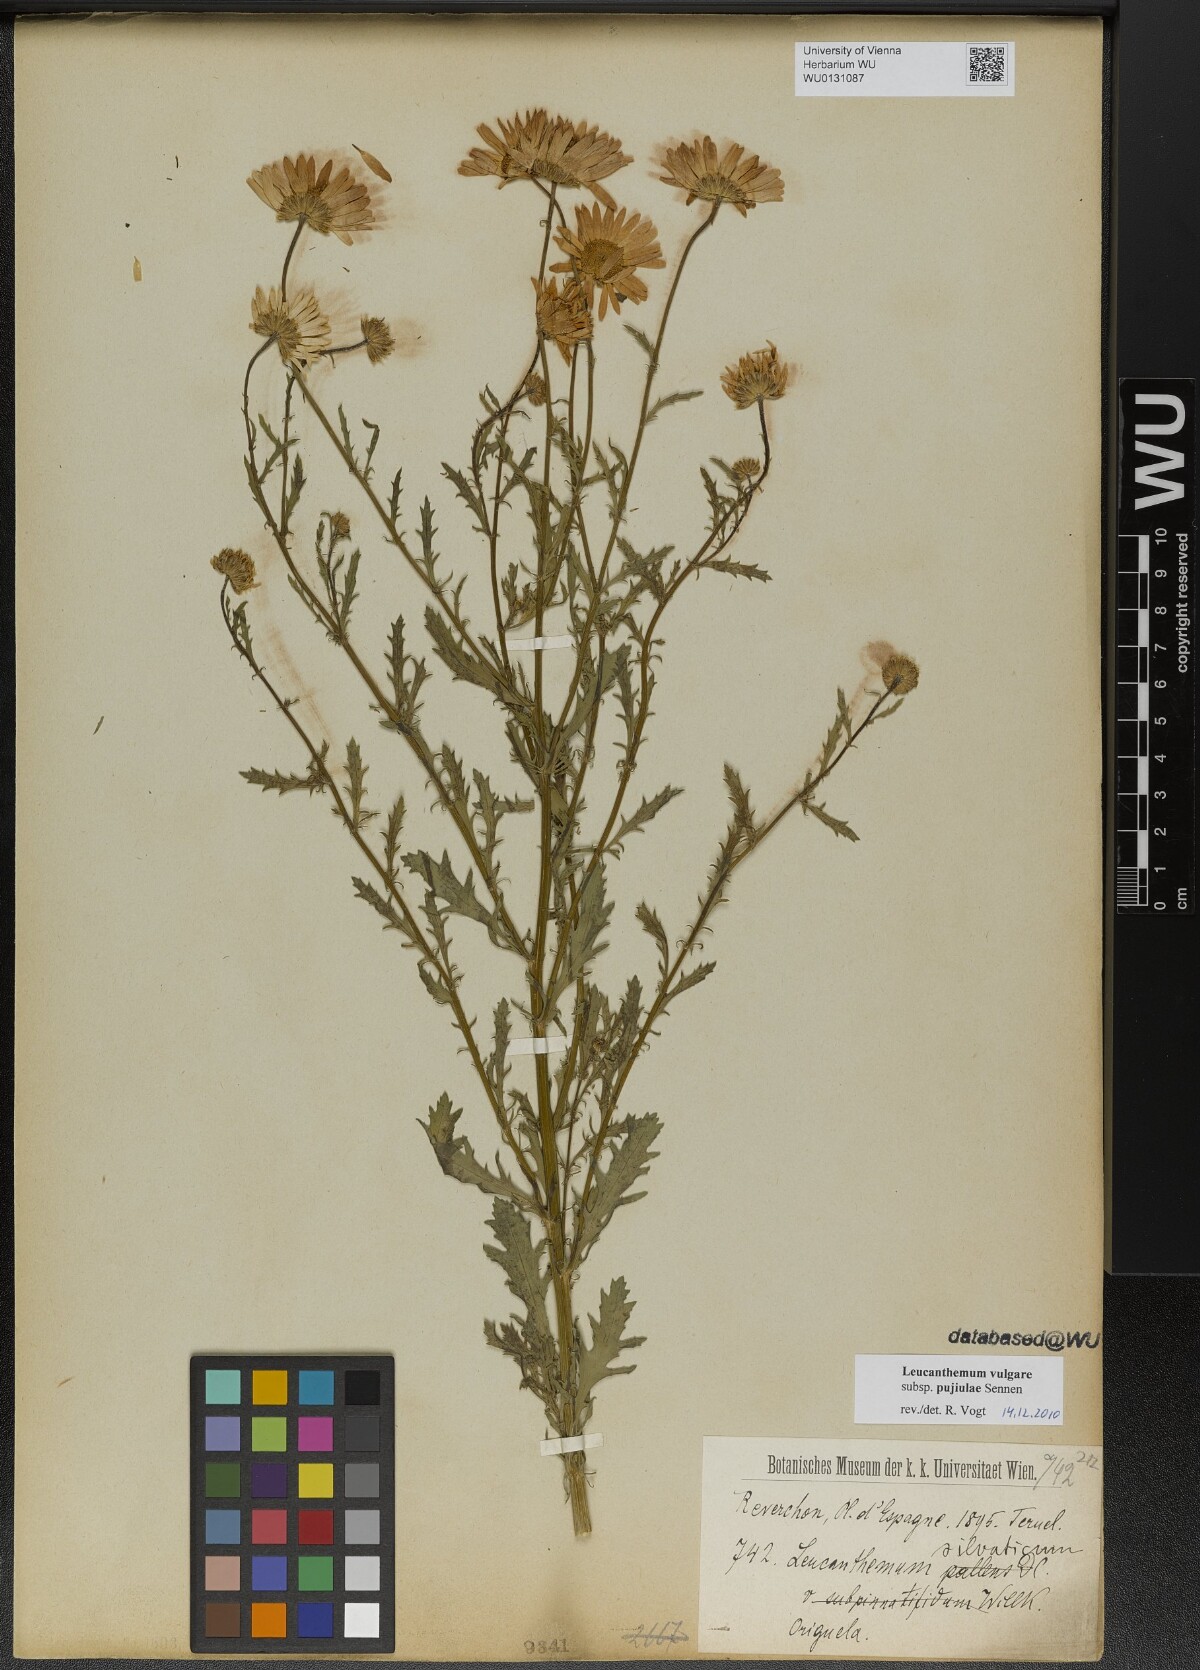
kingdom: Plantae
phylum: Tracheophyta
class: Magnoliopsida
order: Asterales
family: Asteraceae
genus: Leucanthemum
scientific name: Leucanthemum ageratifolium
